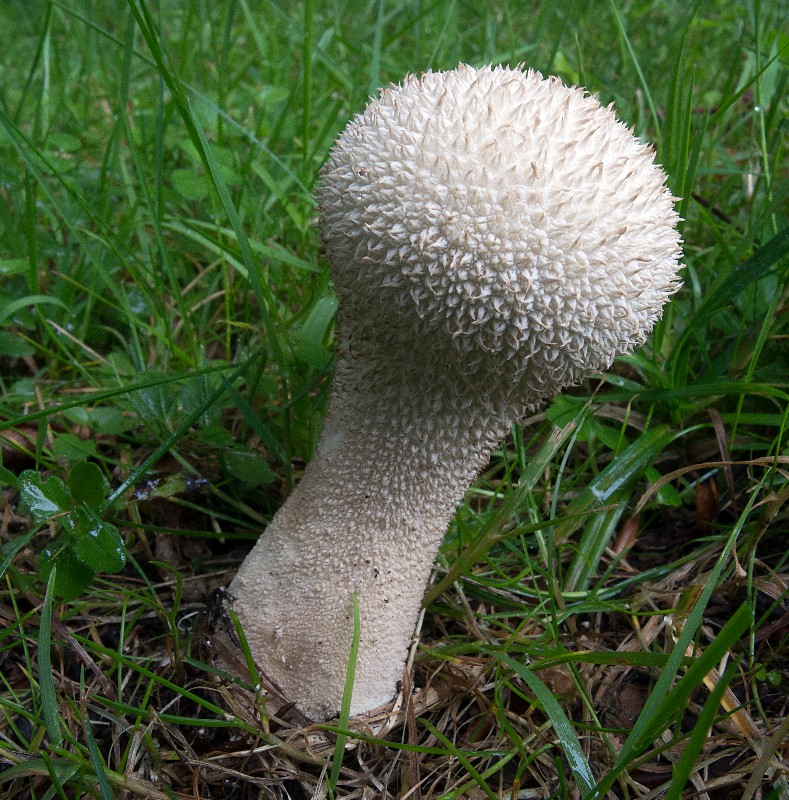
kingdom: Fungi
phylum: Basidiomycota
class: Agaricomycetes
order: Agaricales
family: Lycoperdaceae
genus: Lycoperdon
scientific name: Lycoperdon excipuliforme
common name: højstokket støvbold
